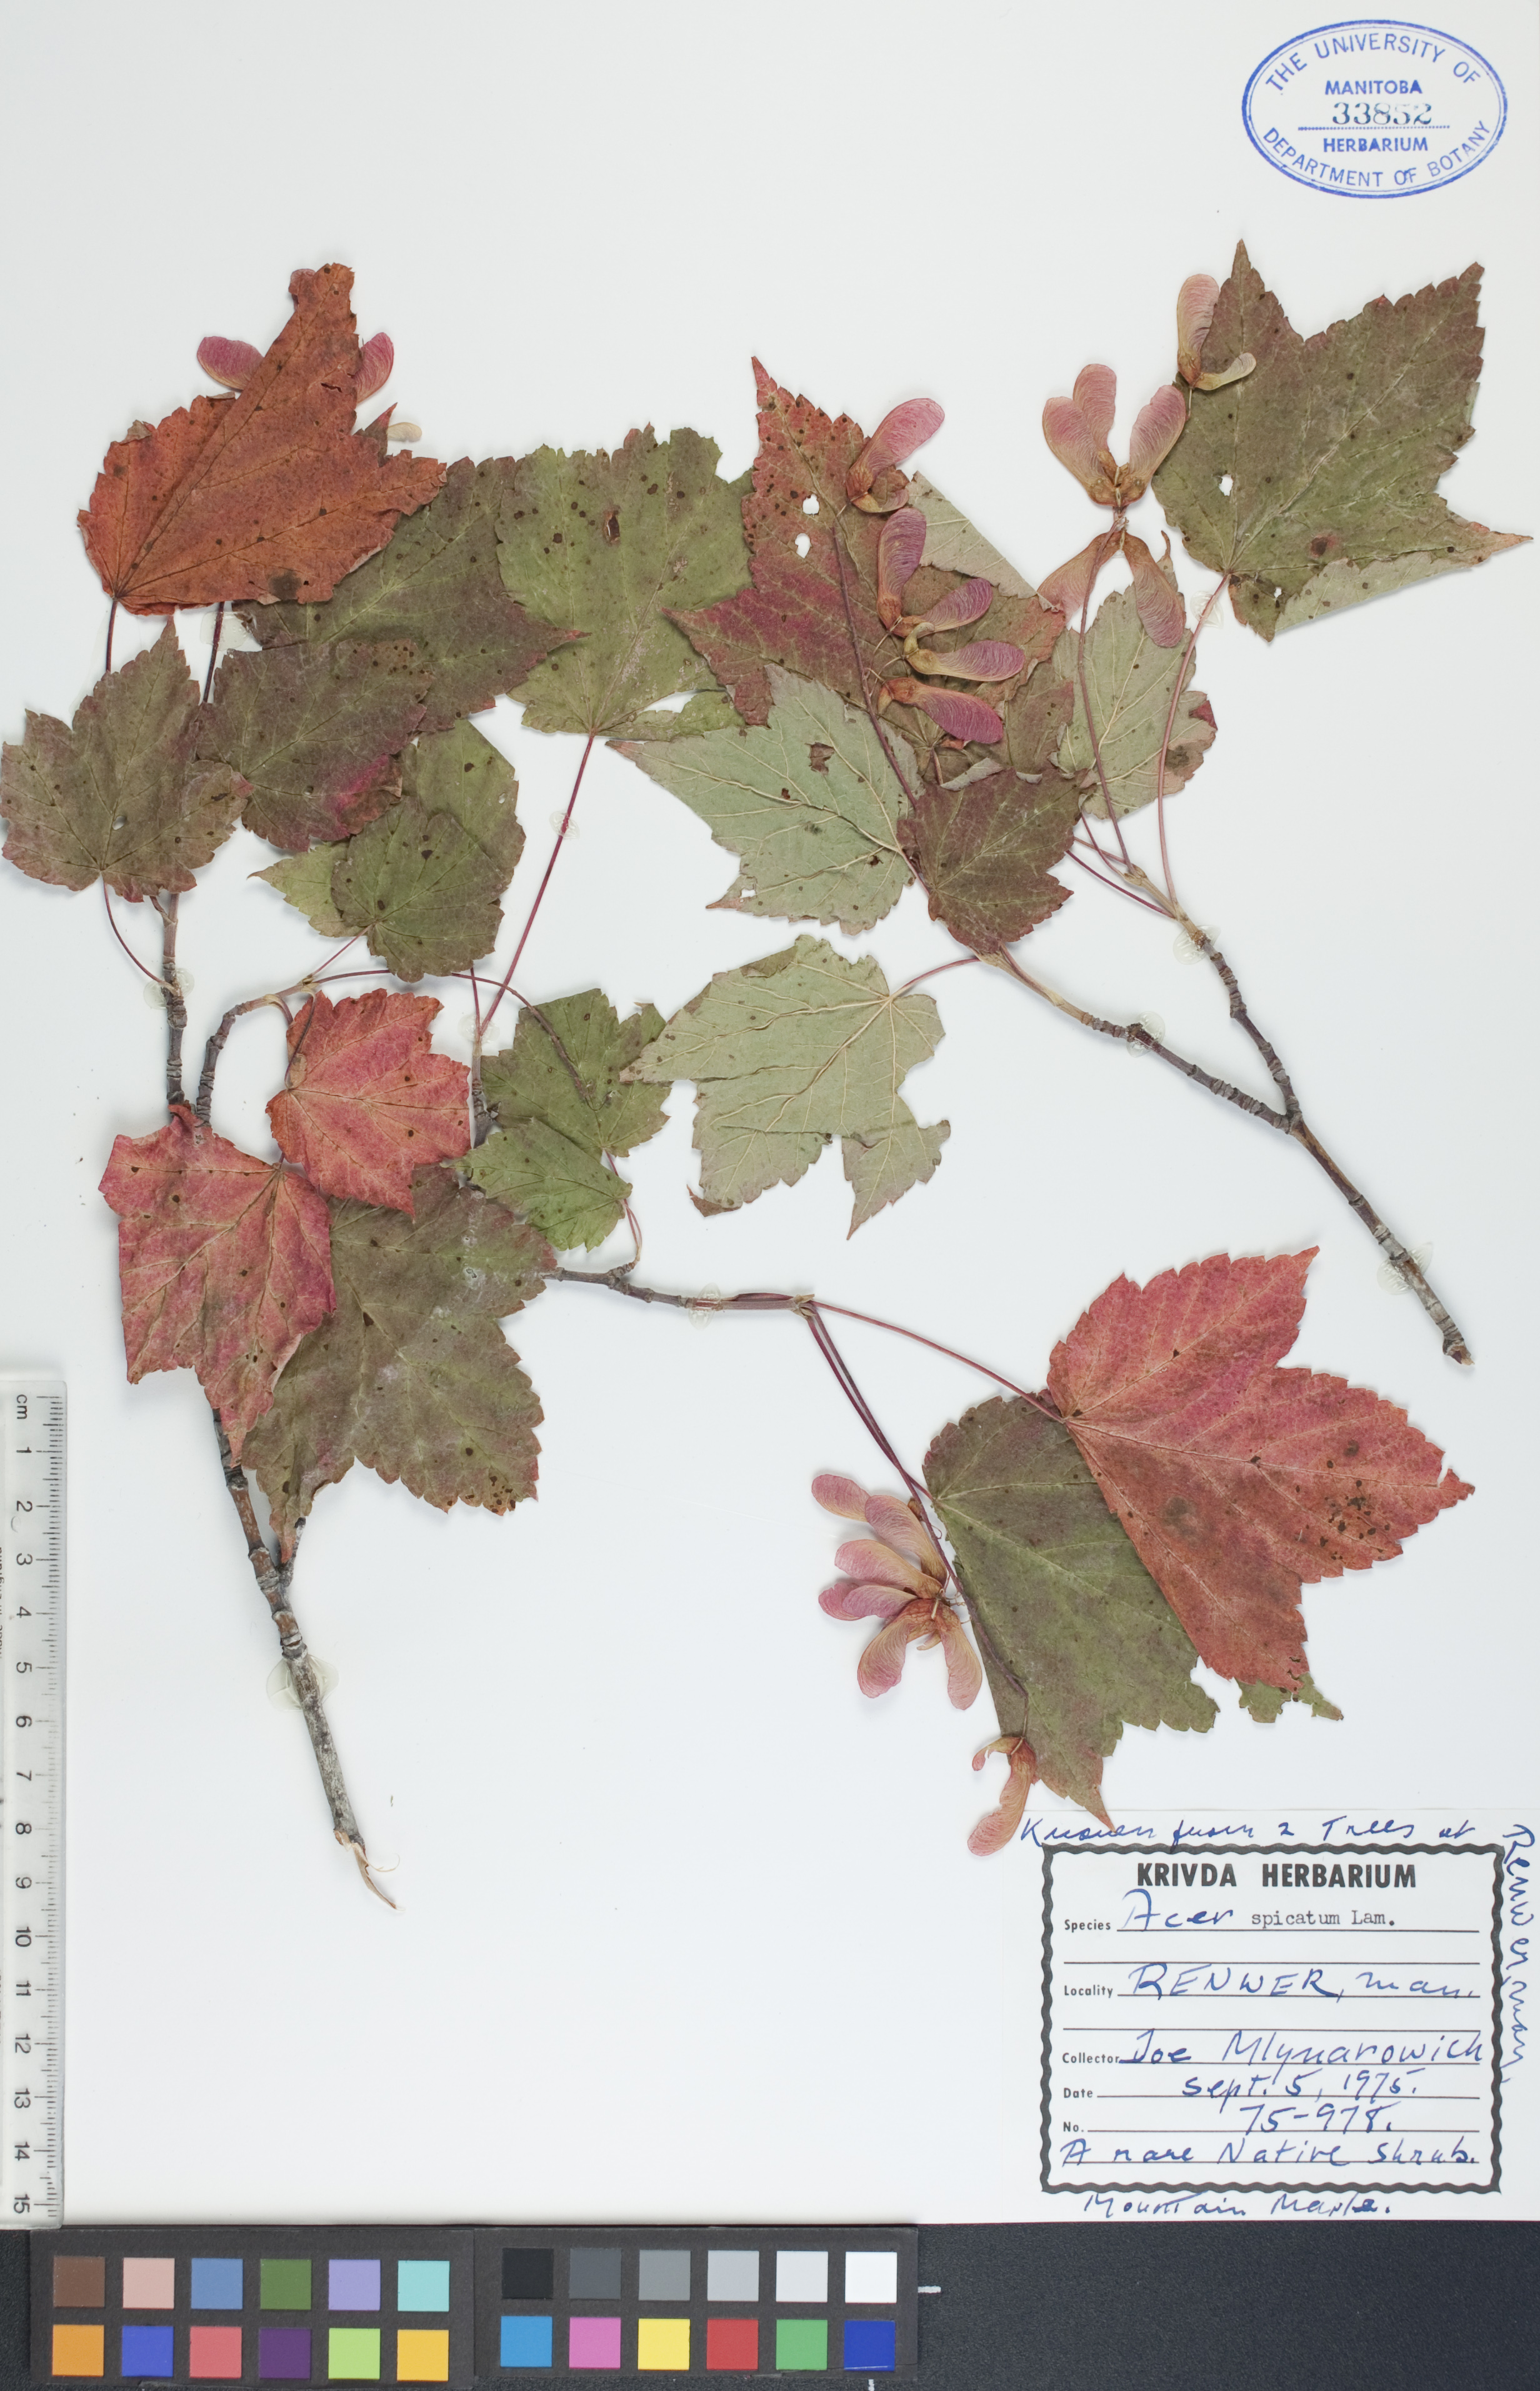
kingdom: Plantae
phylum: Tracheophyta
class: Magnoliopsida
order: Sapindales
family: Sapindaceae
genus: Acer
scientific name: Acer spicatum
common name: Mountain maple
